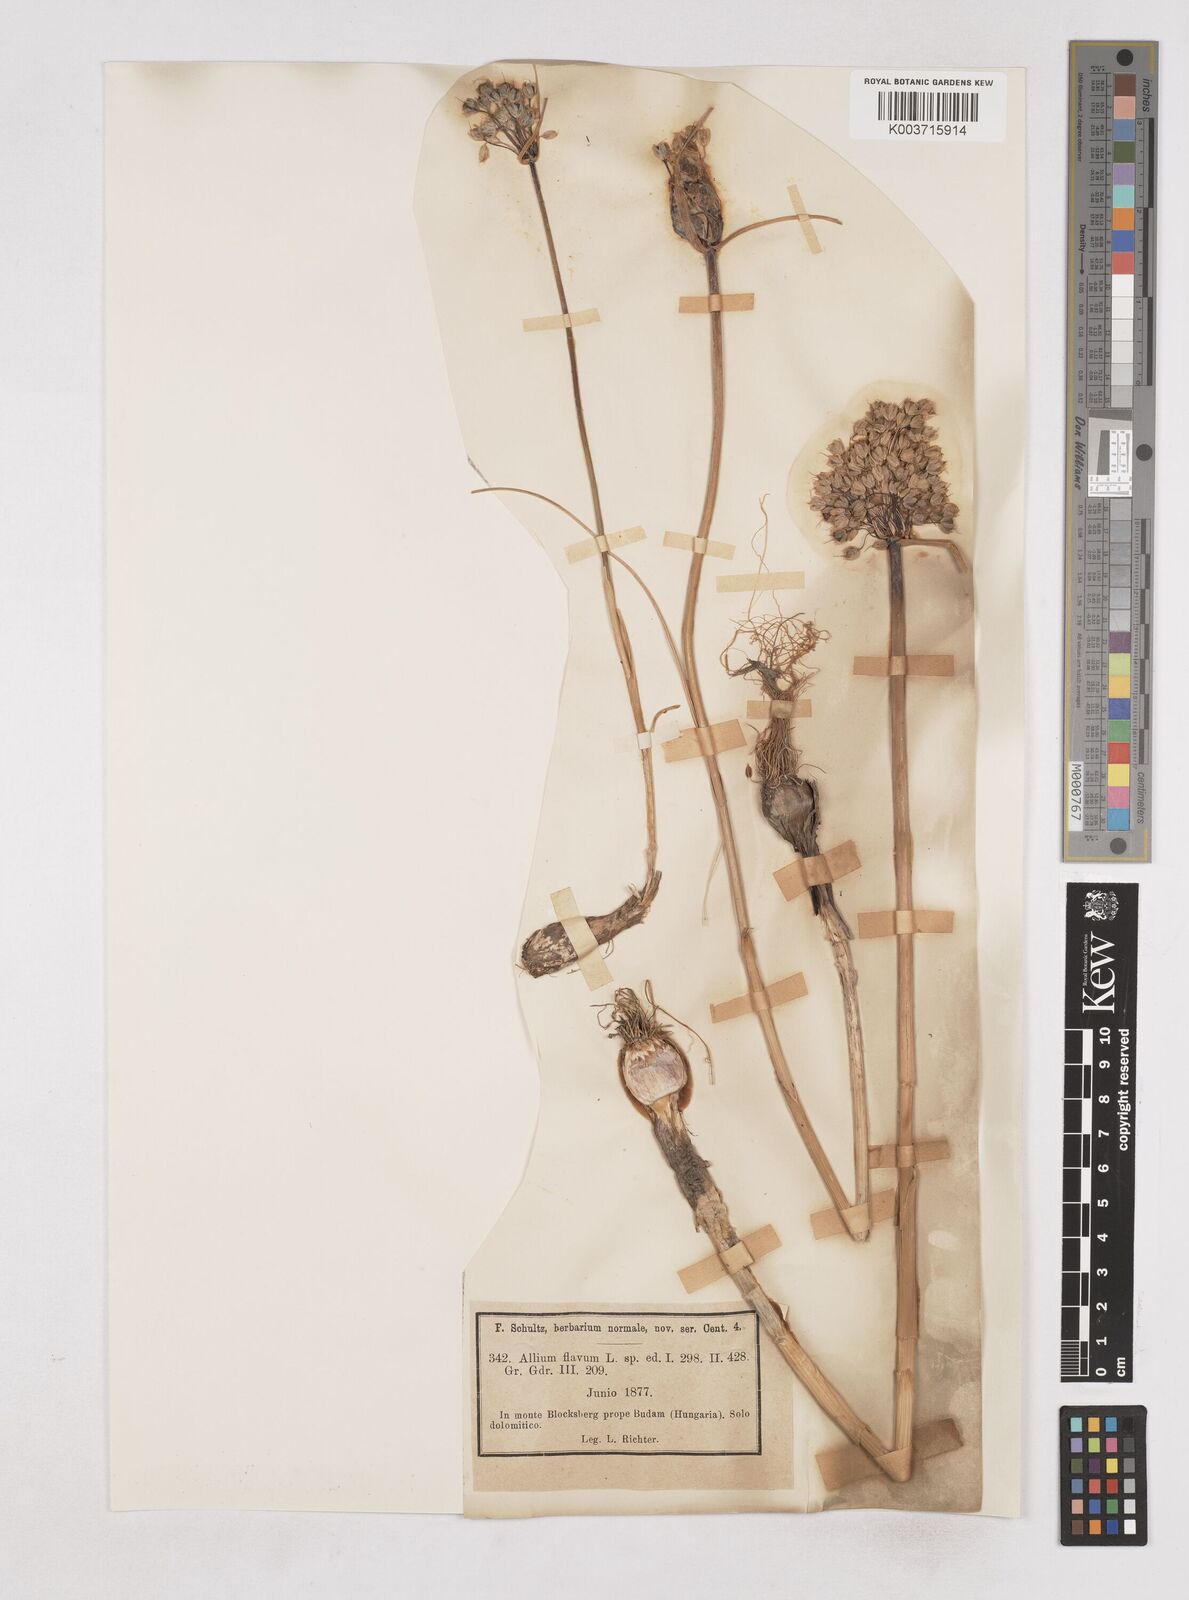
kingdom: Plantae
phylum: Tracheophyta
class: Liliopsida
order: Asparagales
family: Amaryllidaceae
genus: Allium
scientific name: Allium flavum
